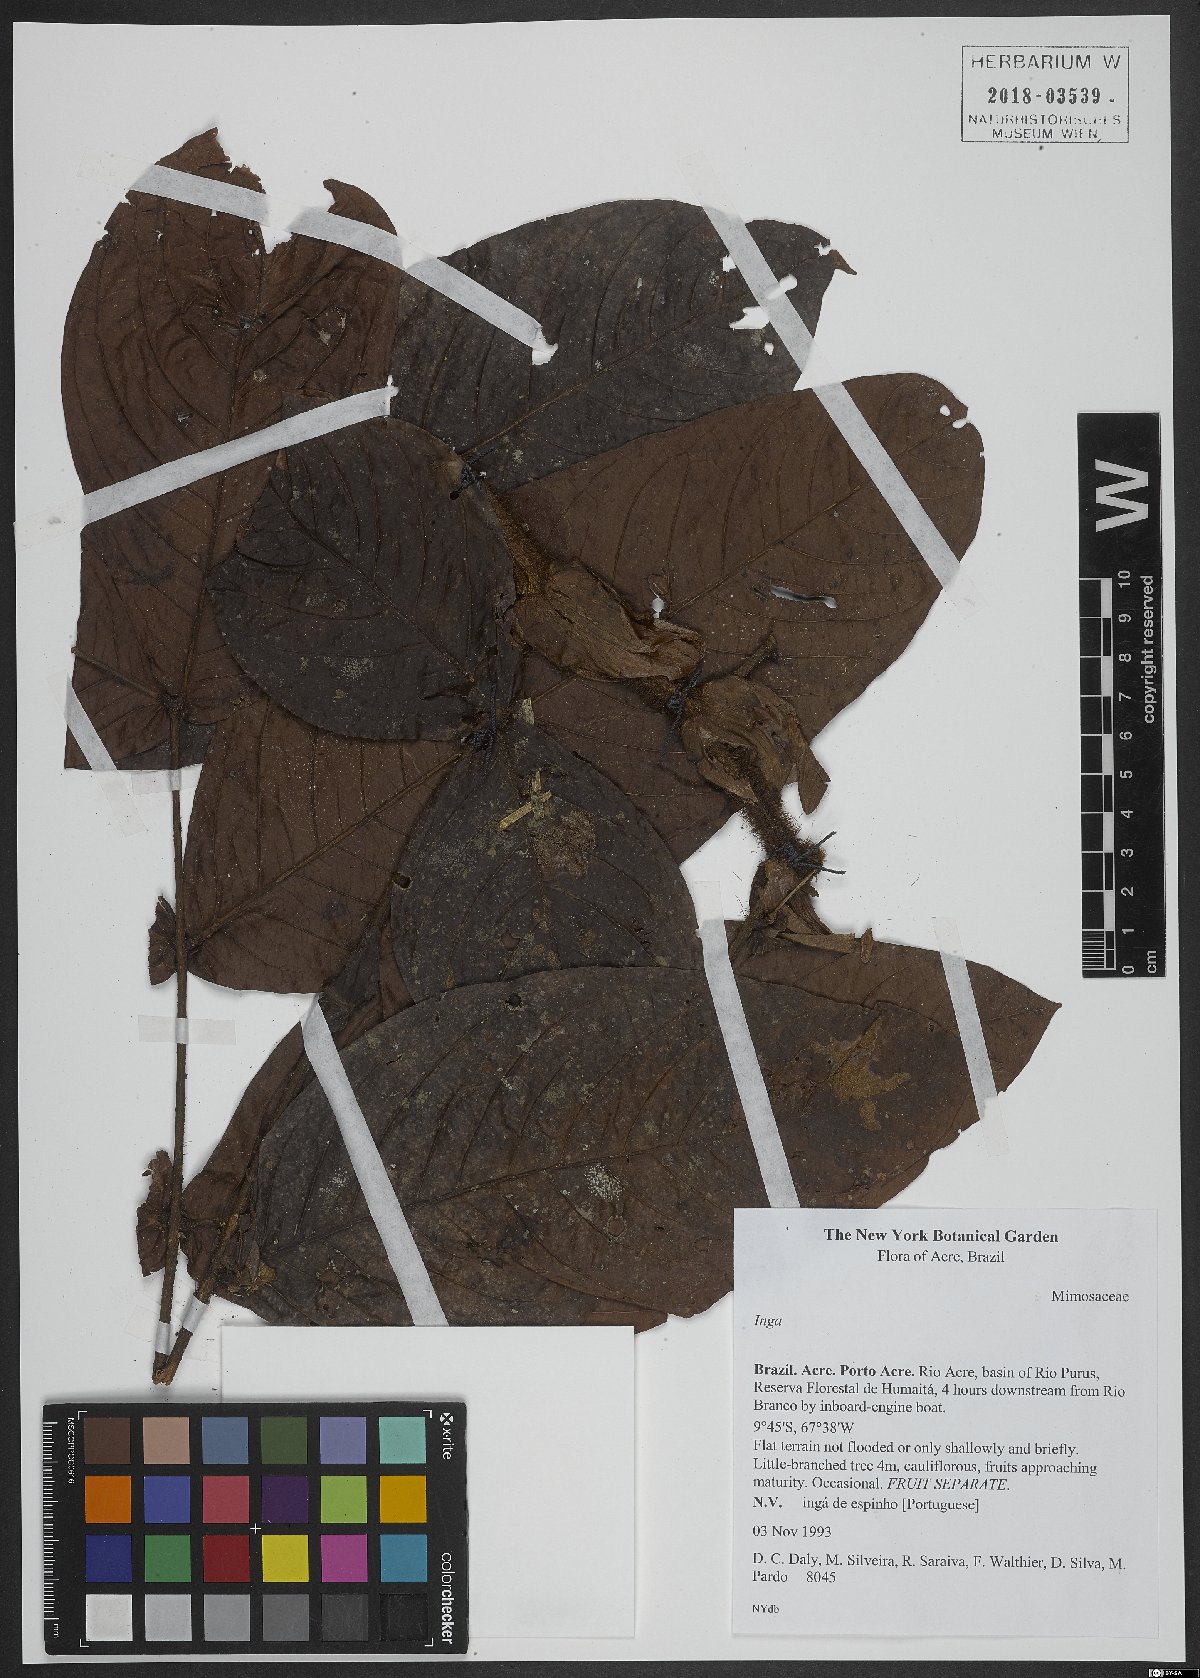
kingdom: Plantae
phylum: Tracheophyta
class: Magnoliopsida
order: Fabales
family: Fabaceae
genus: Inga
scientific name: Inga
